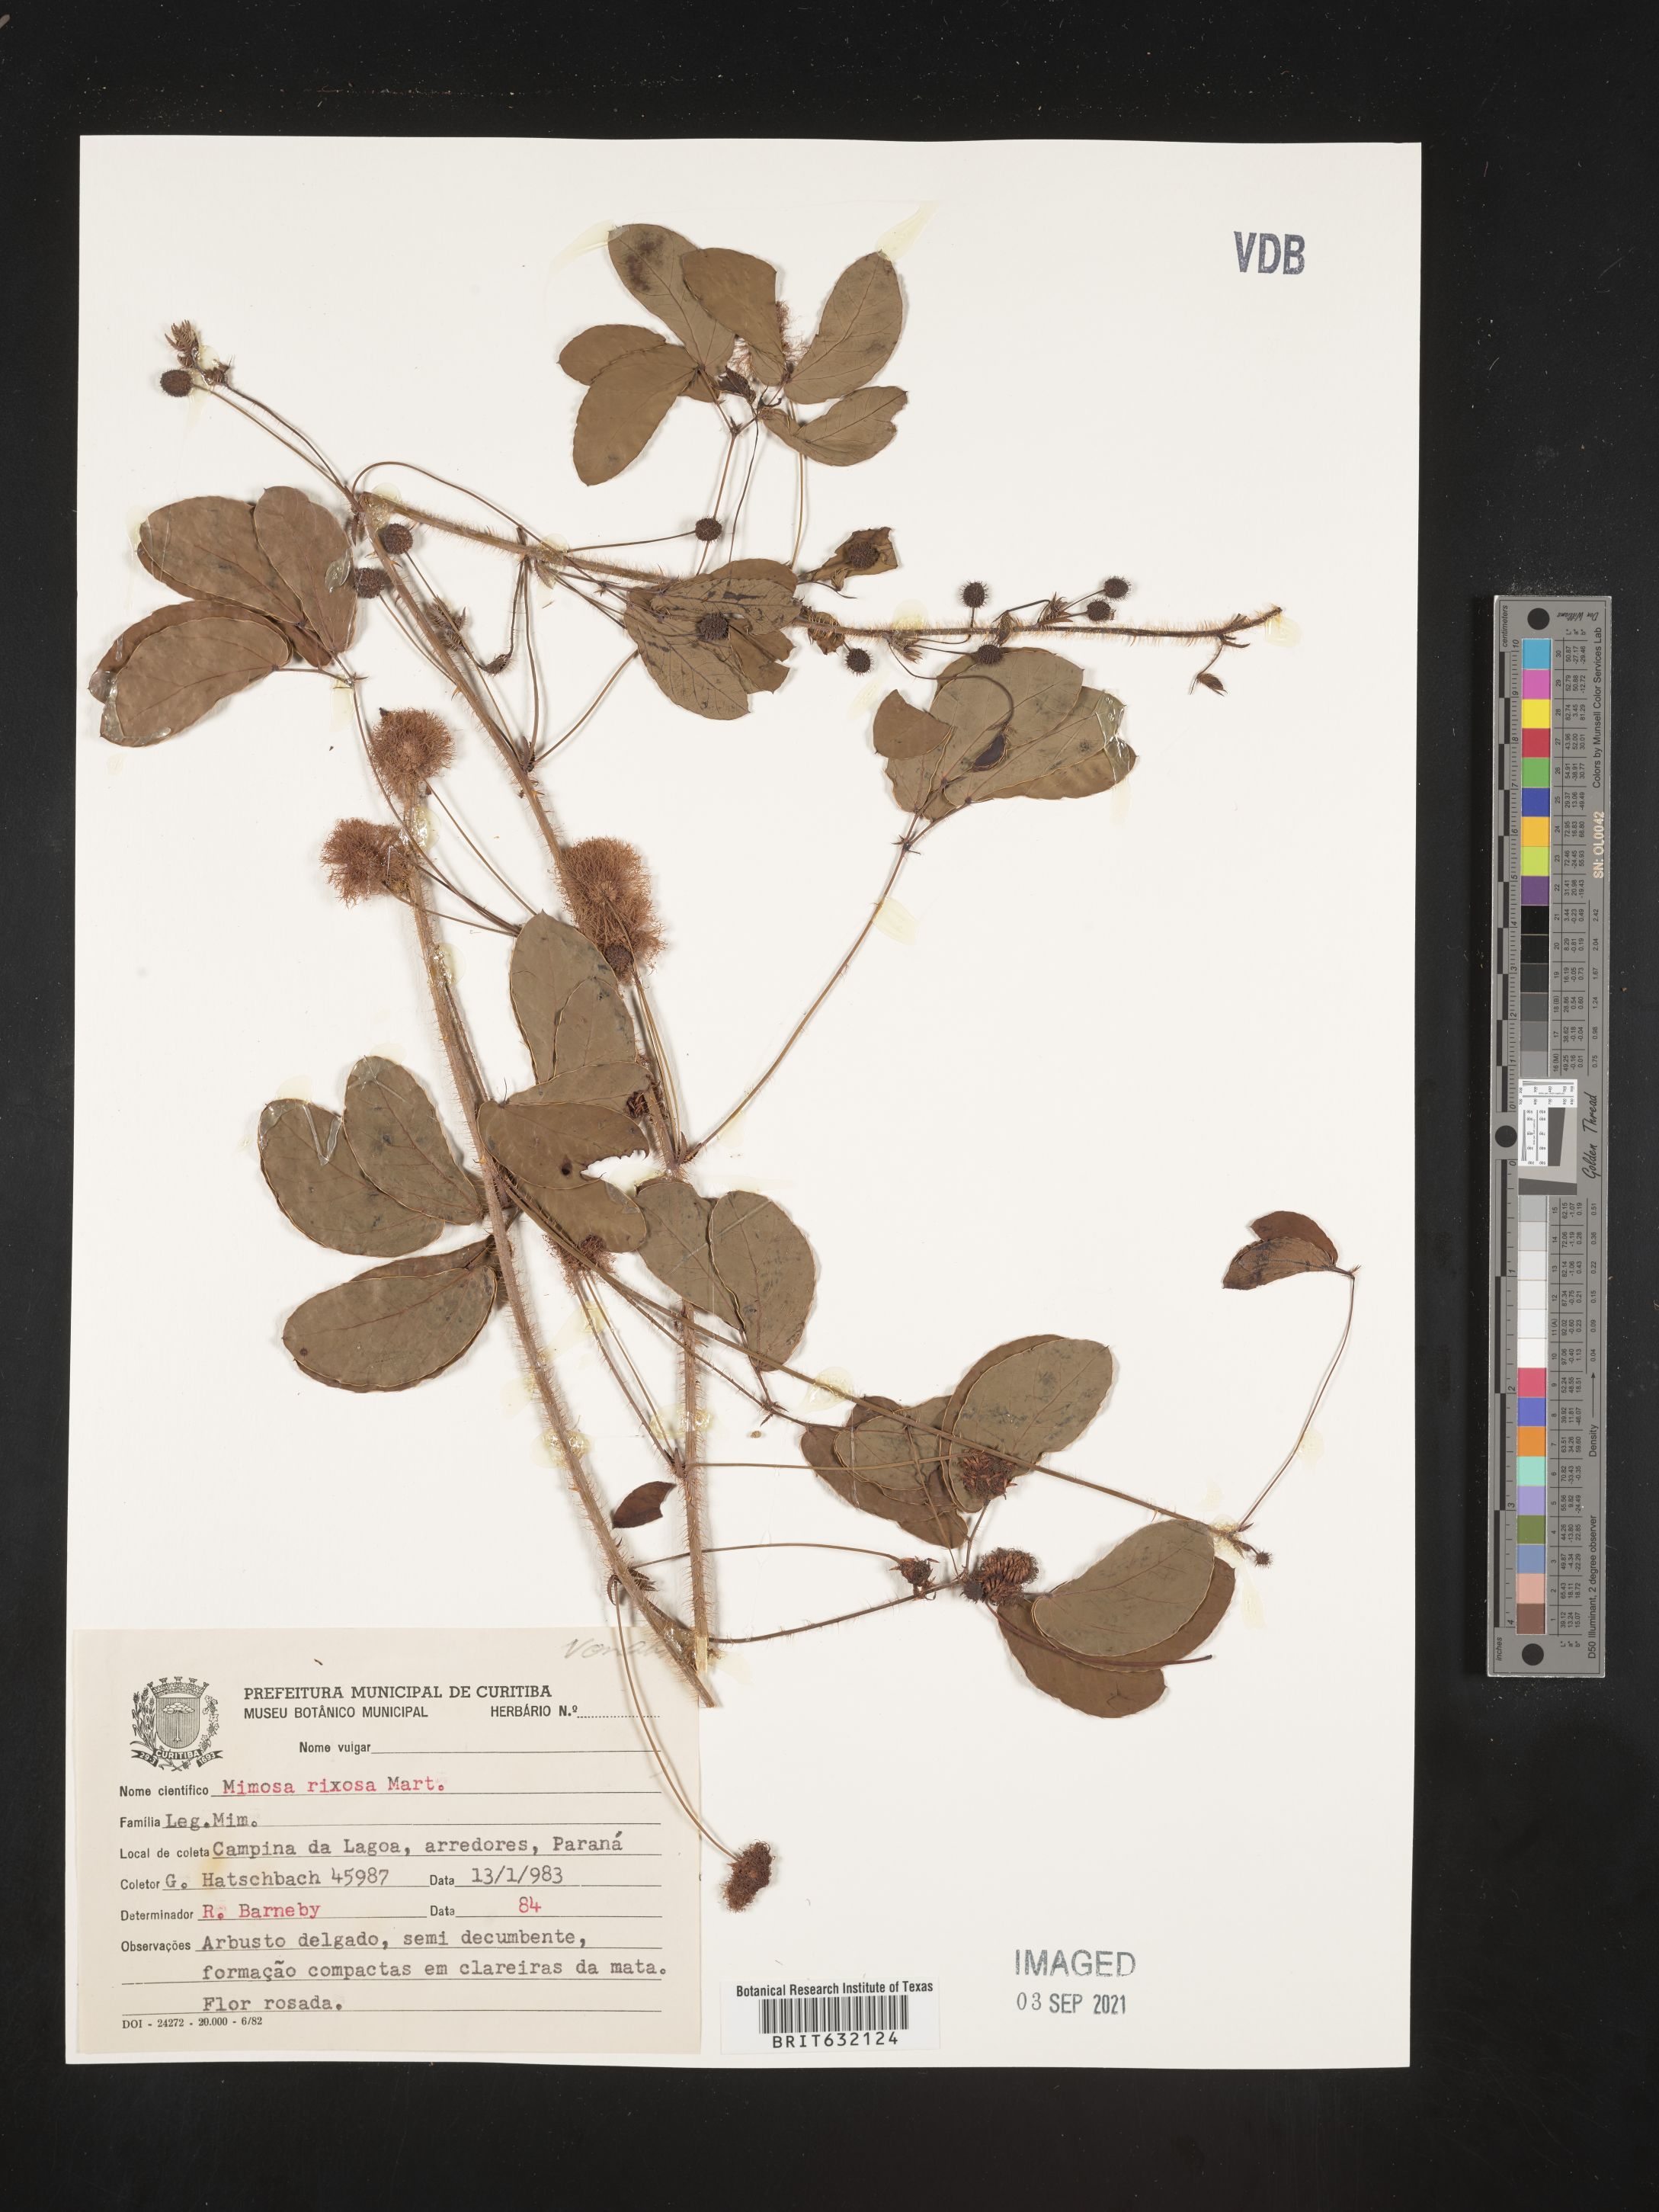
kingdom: Plantae
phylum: Tracheophyta
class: Magnoliopsida
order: Fabales
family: Fabaceae
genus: Mimosa
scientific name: Mimosa
